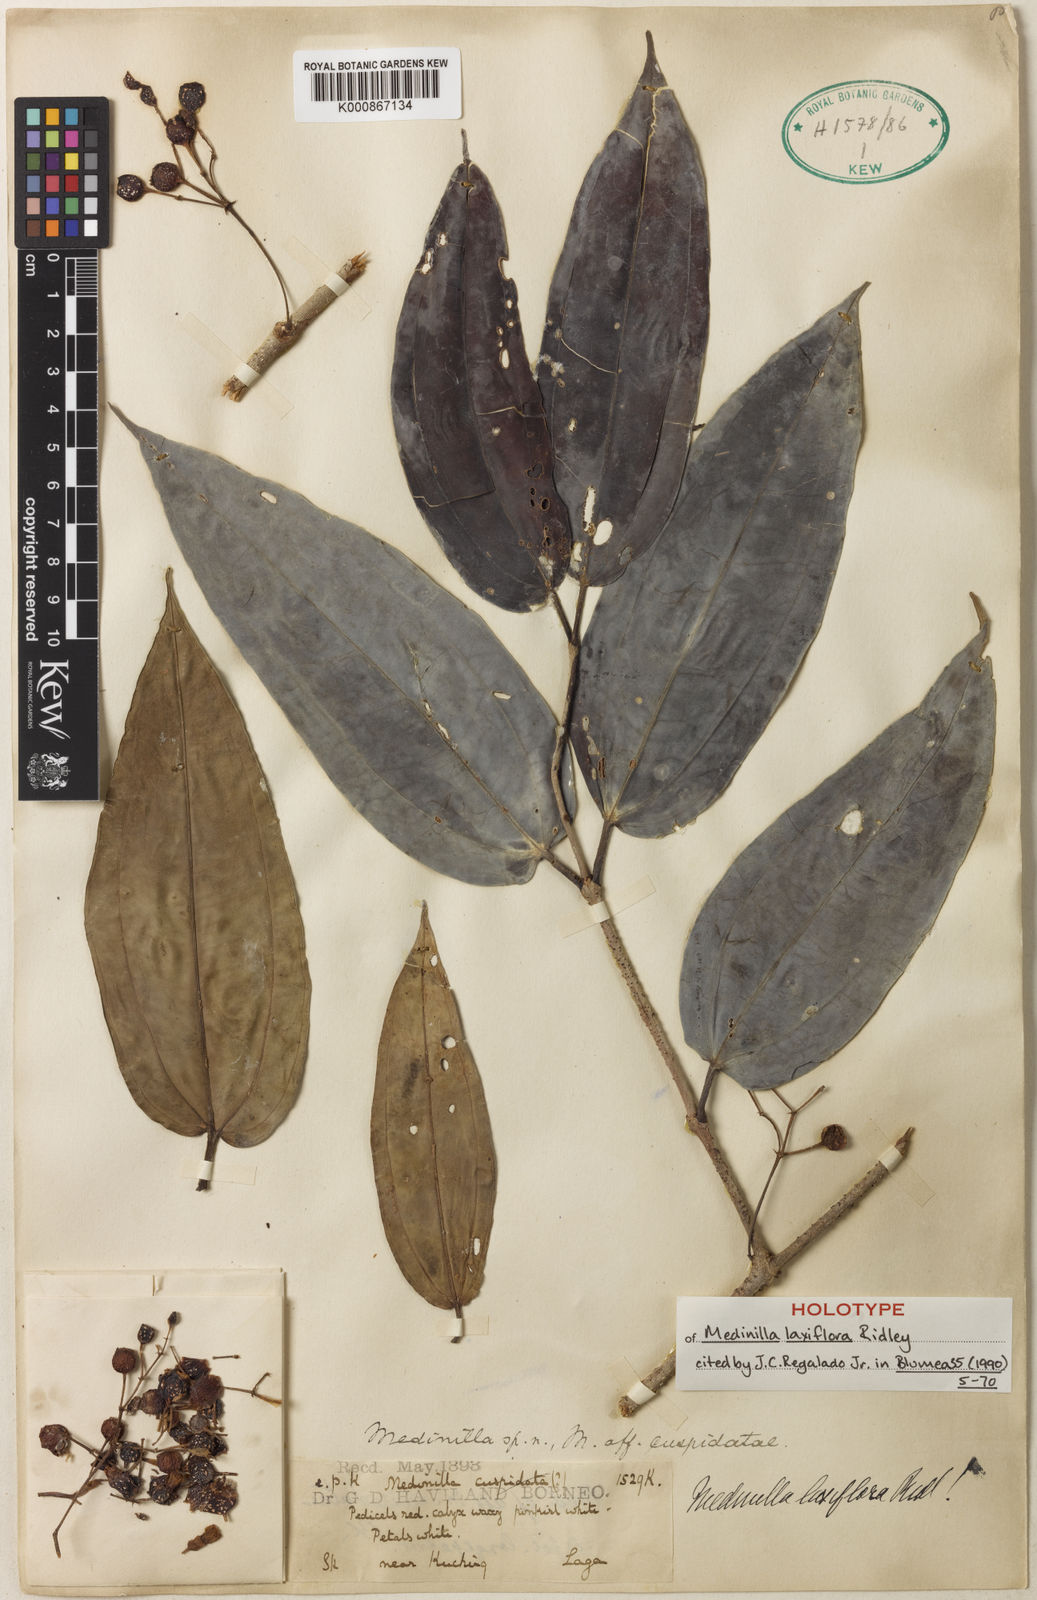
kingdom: Plantae
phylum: Tracheophyta
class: Magnoliopsida
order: Myrtales
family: Melastomataceae
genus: Medinilla
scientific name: Medinilla laxiflora
